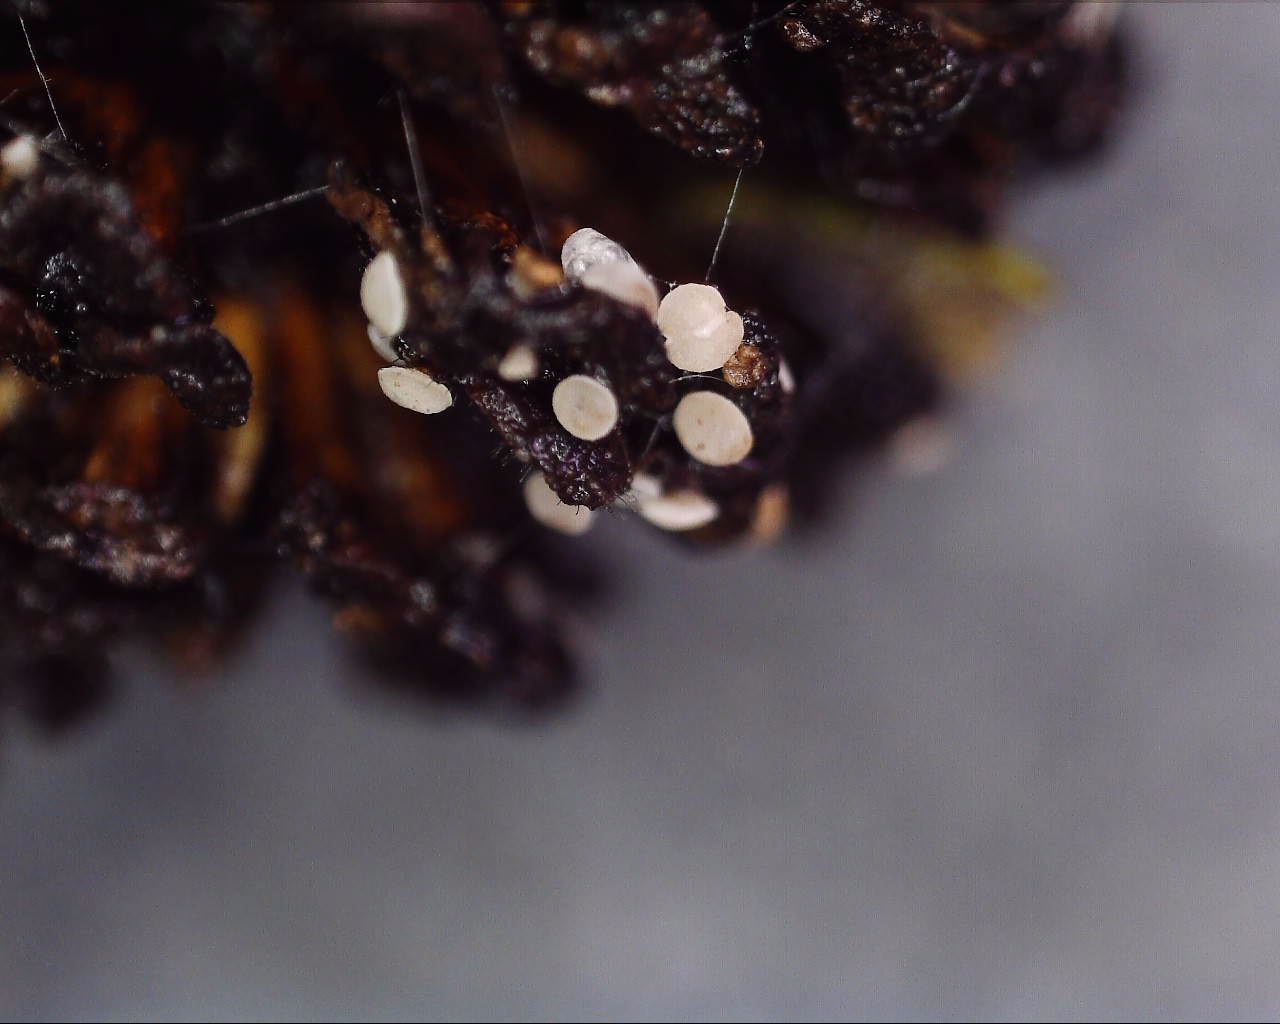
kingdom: Fungi
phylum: Ascomycota
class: Leotiomycetes
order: Helotiales
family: Pezizellaceae
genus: Calycina
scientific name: Calycina alniella
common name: ellekogle-stilkskive
